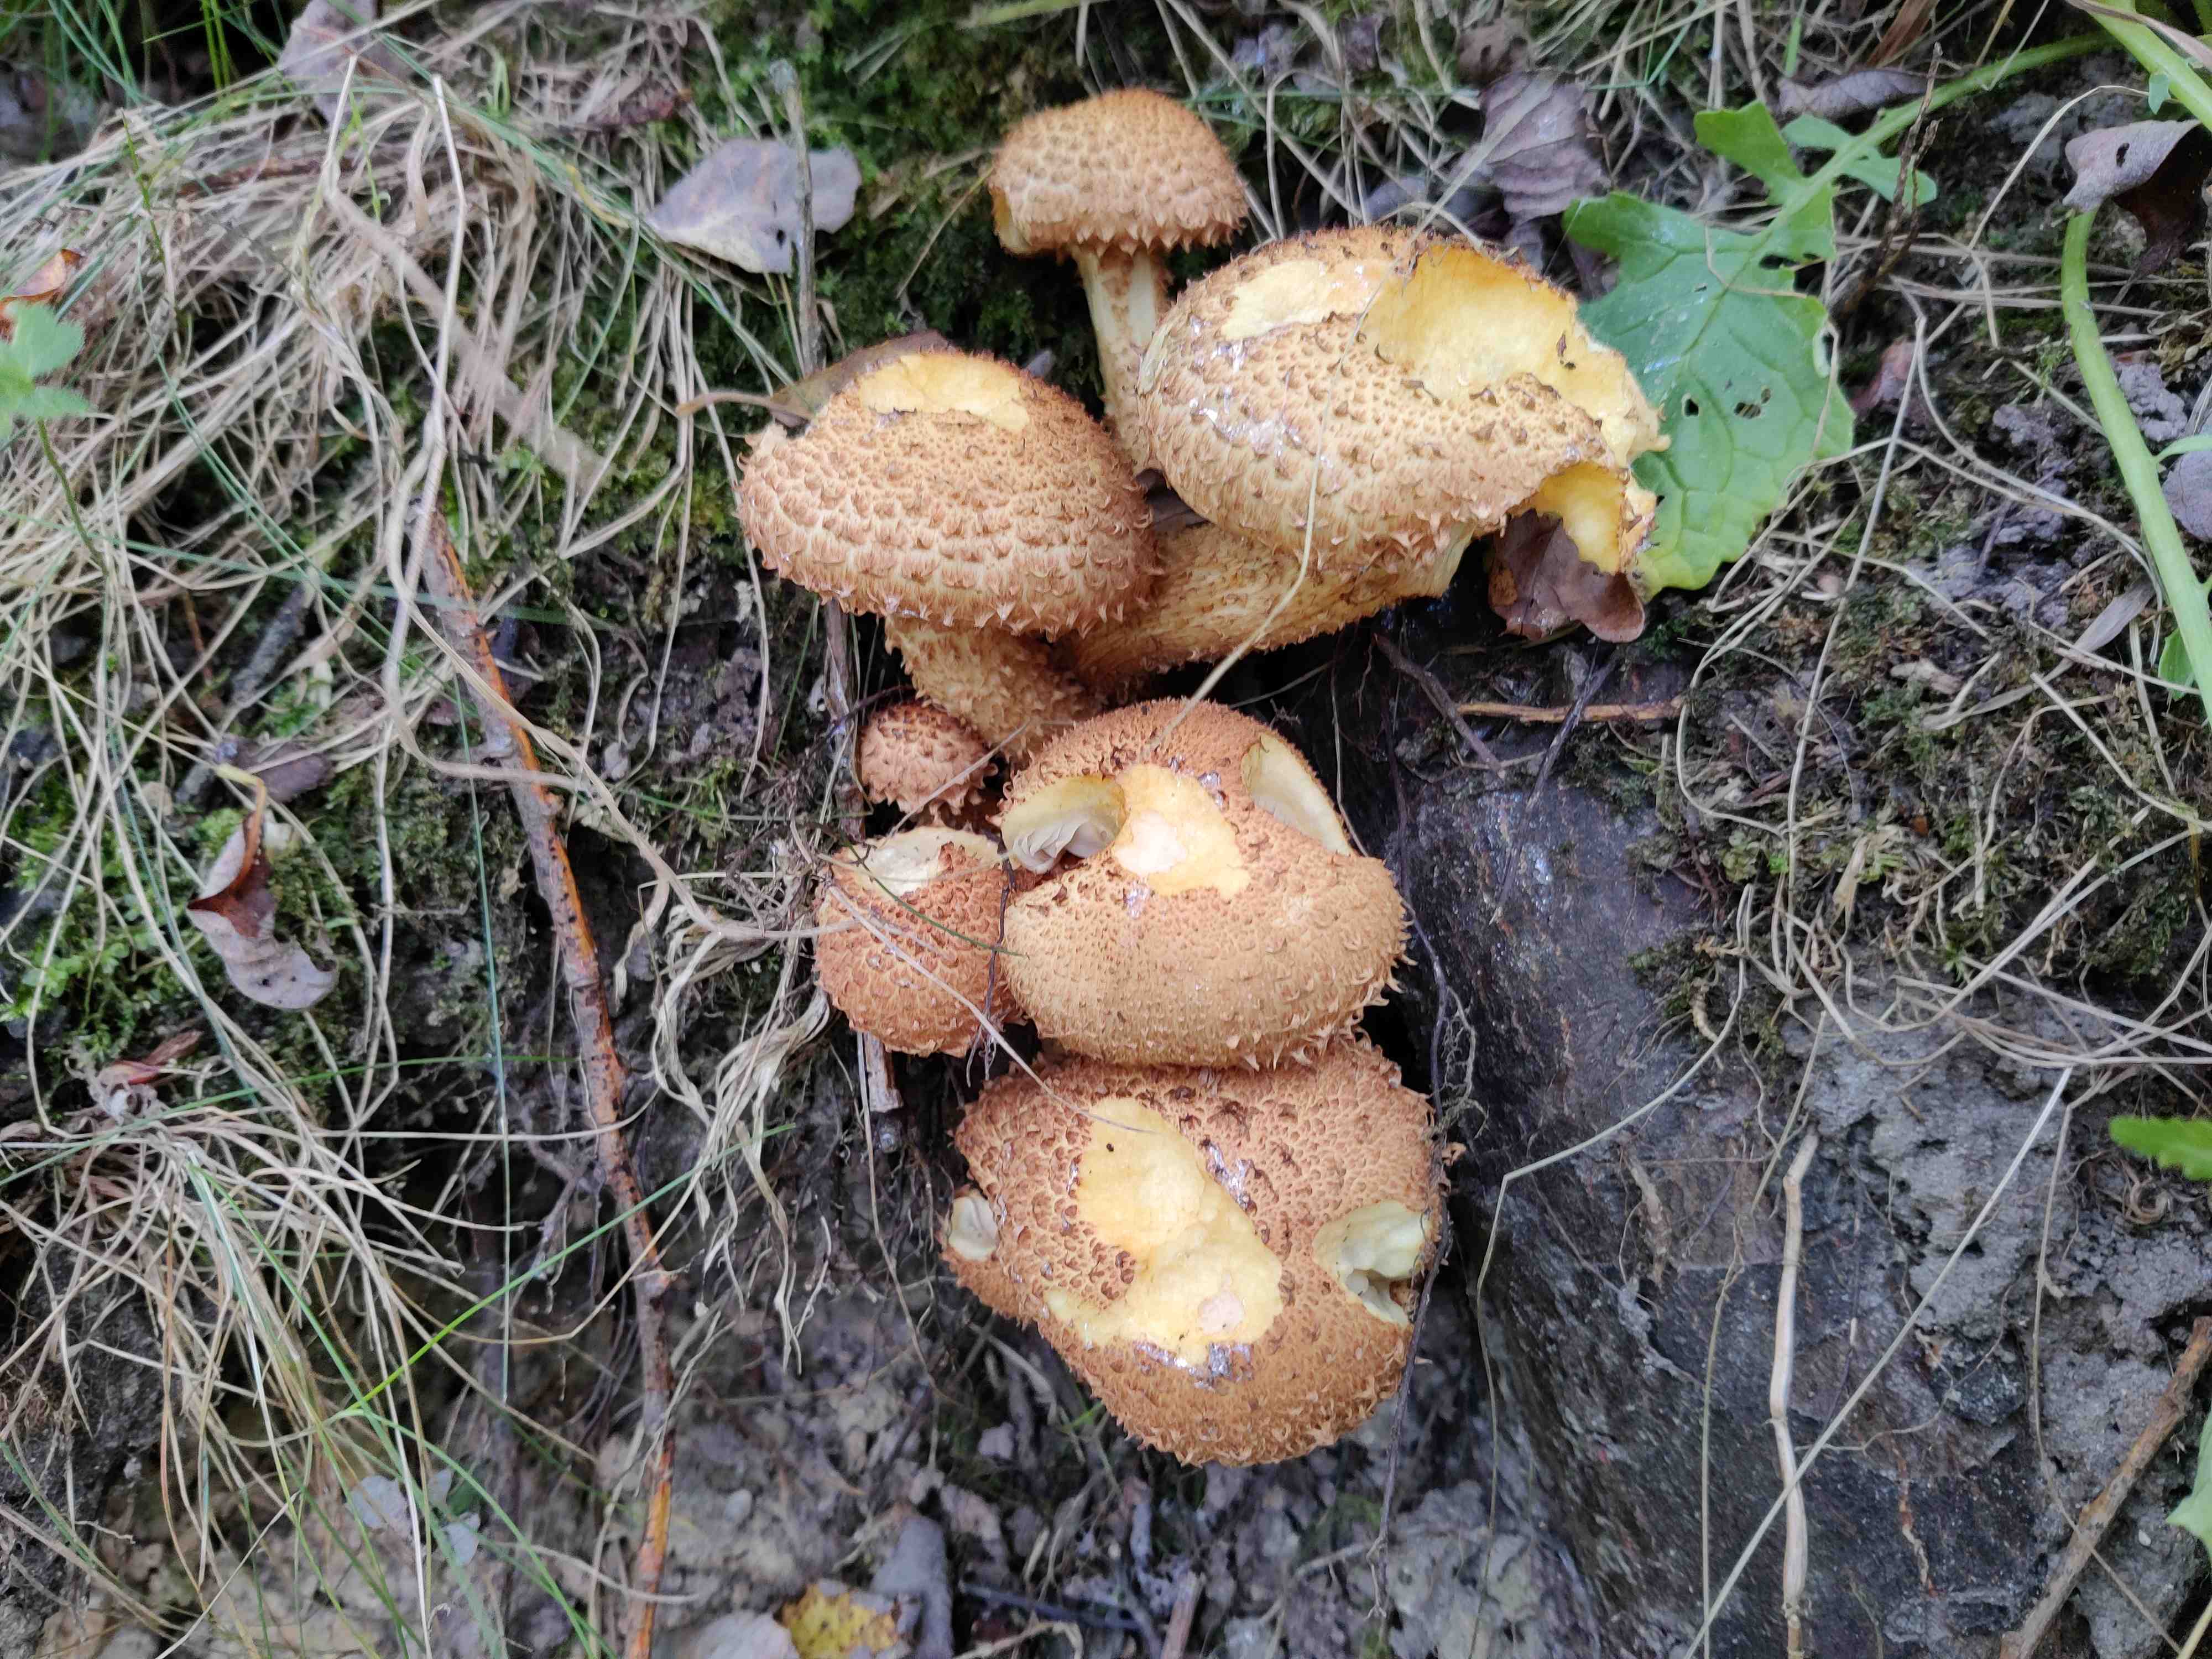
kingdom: Fungi
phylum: Basidiomycota
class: Agaricomycetes
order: Agaricales
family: Strophariaceae
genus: Pholiota
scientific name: Pholiota squarrosa
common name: krumskællet skælhat
